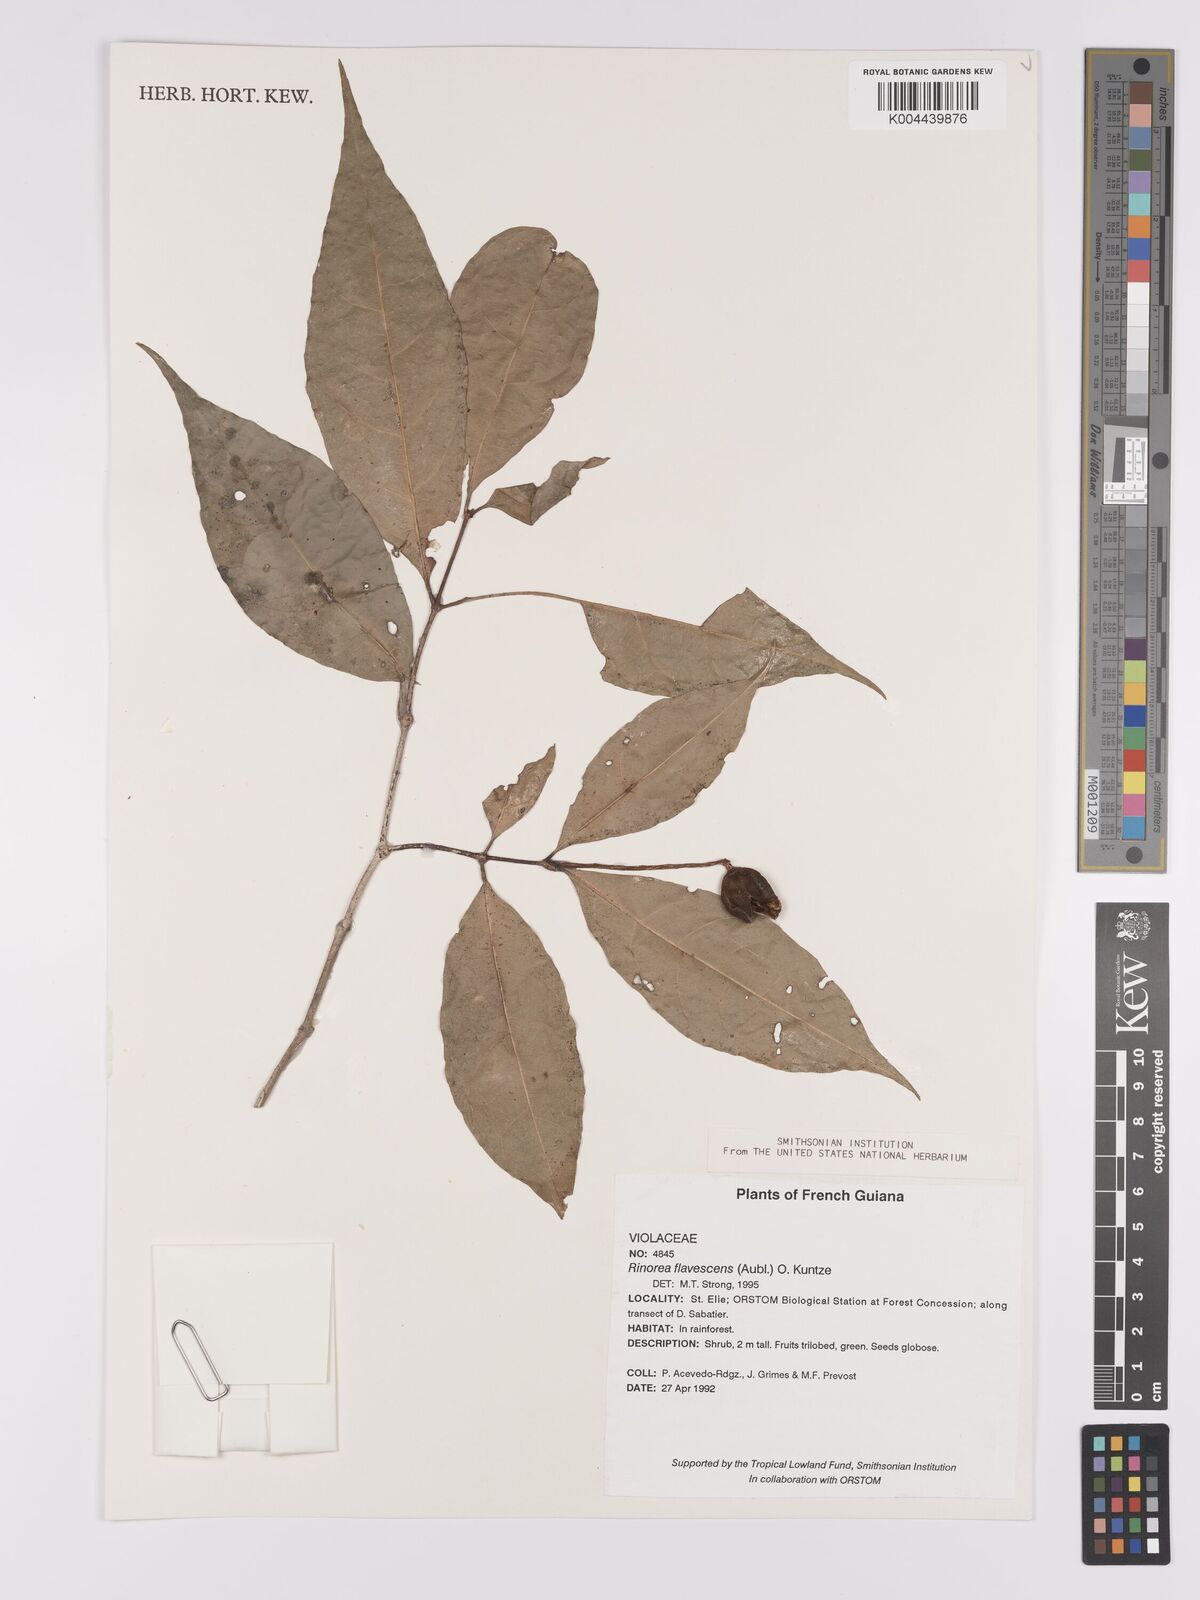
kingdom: Plantae
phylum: Tracheophyta
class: Magnoliopsida
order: Malpighiales
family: Violaceae
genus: Rinorea
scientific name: Rinorea flavescens
